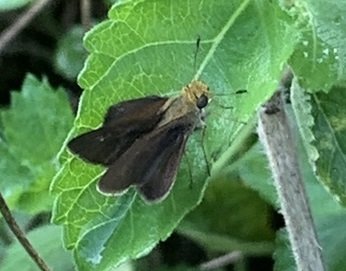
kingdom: Animalia
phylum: Arthropoda
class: Insecta
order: Lepidoptera
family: Hesperiidae
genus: Euphyes
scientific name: Euphyes vestris
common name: Dun Skipper
